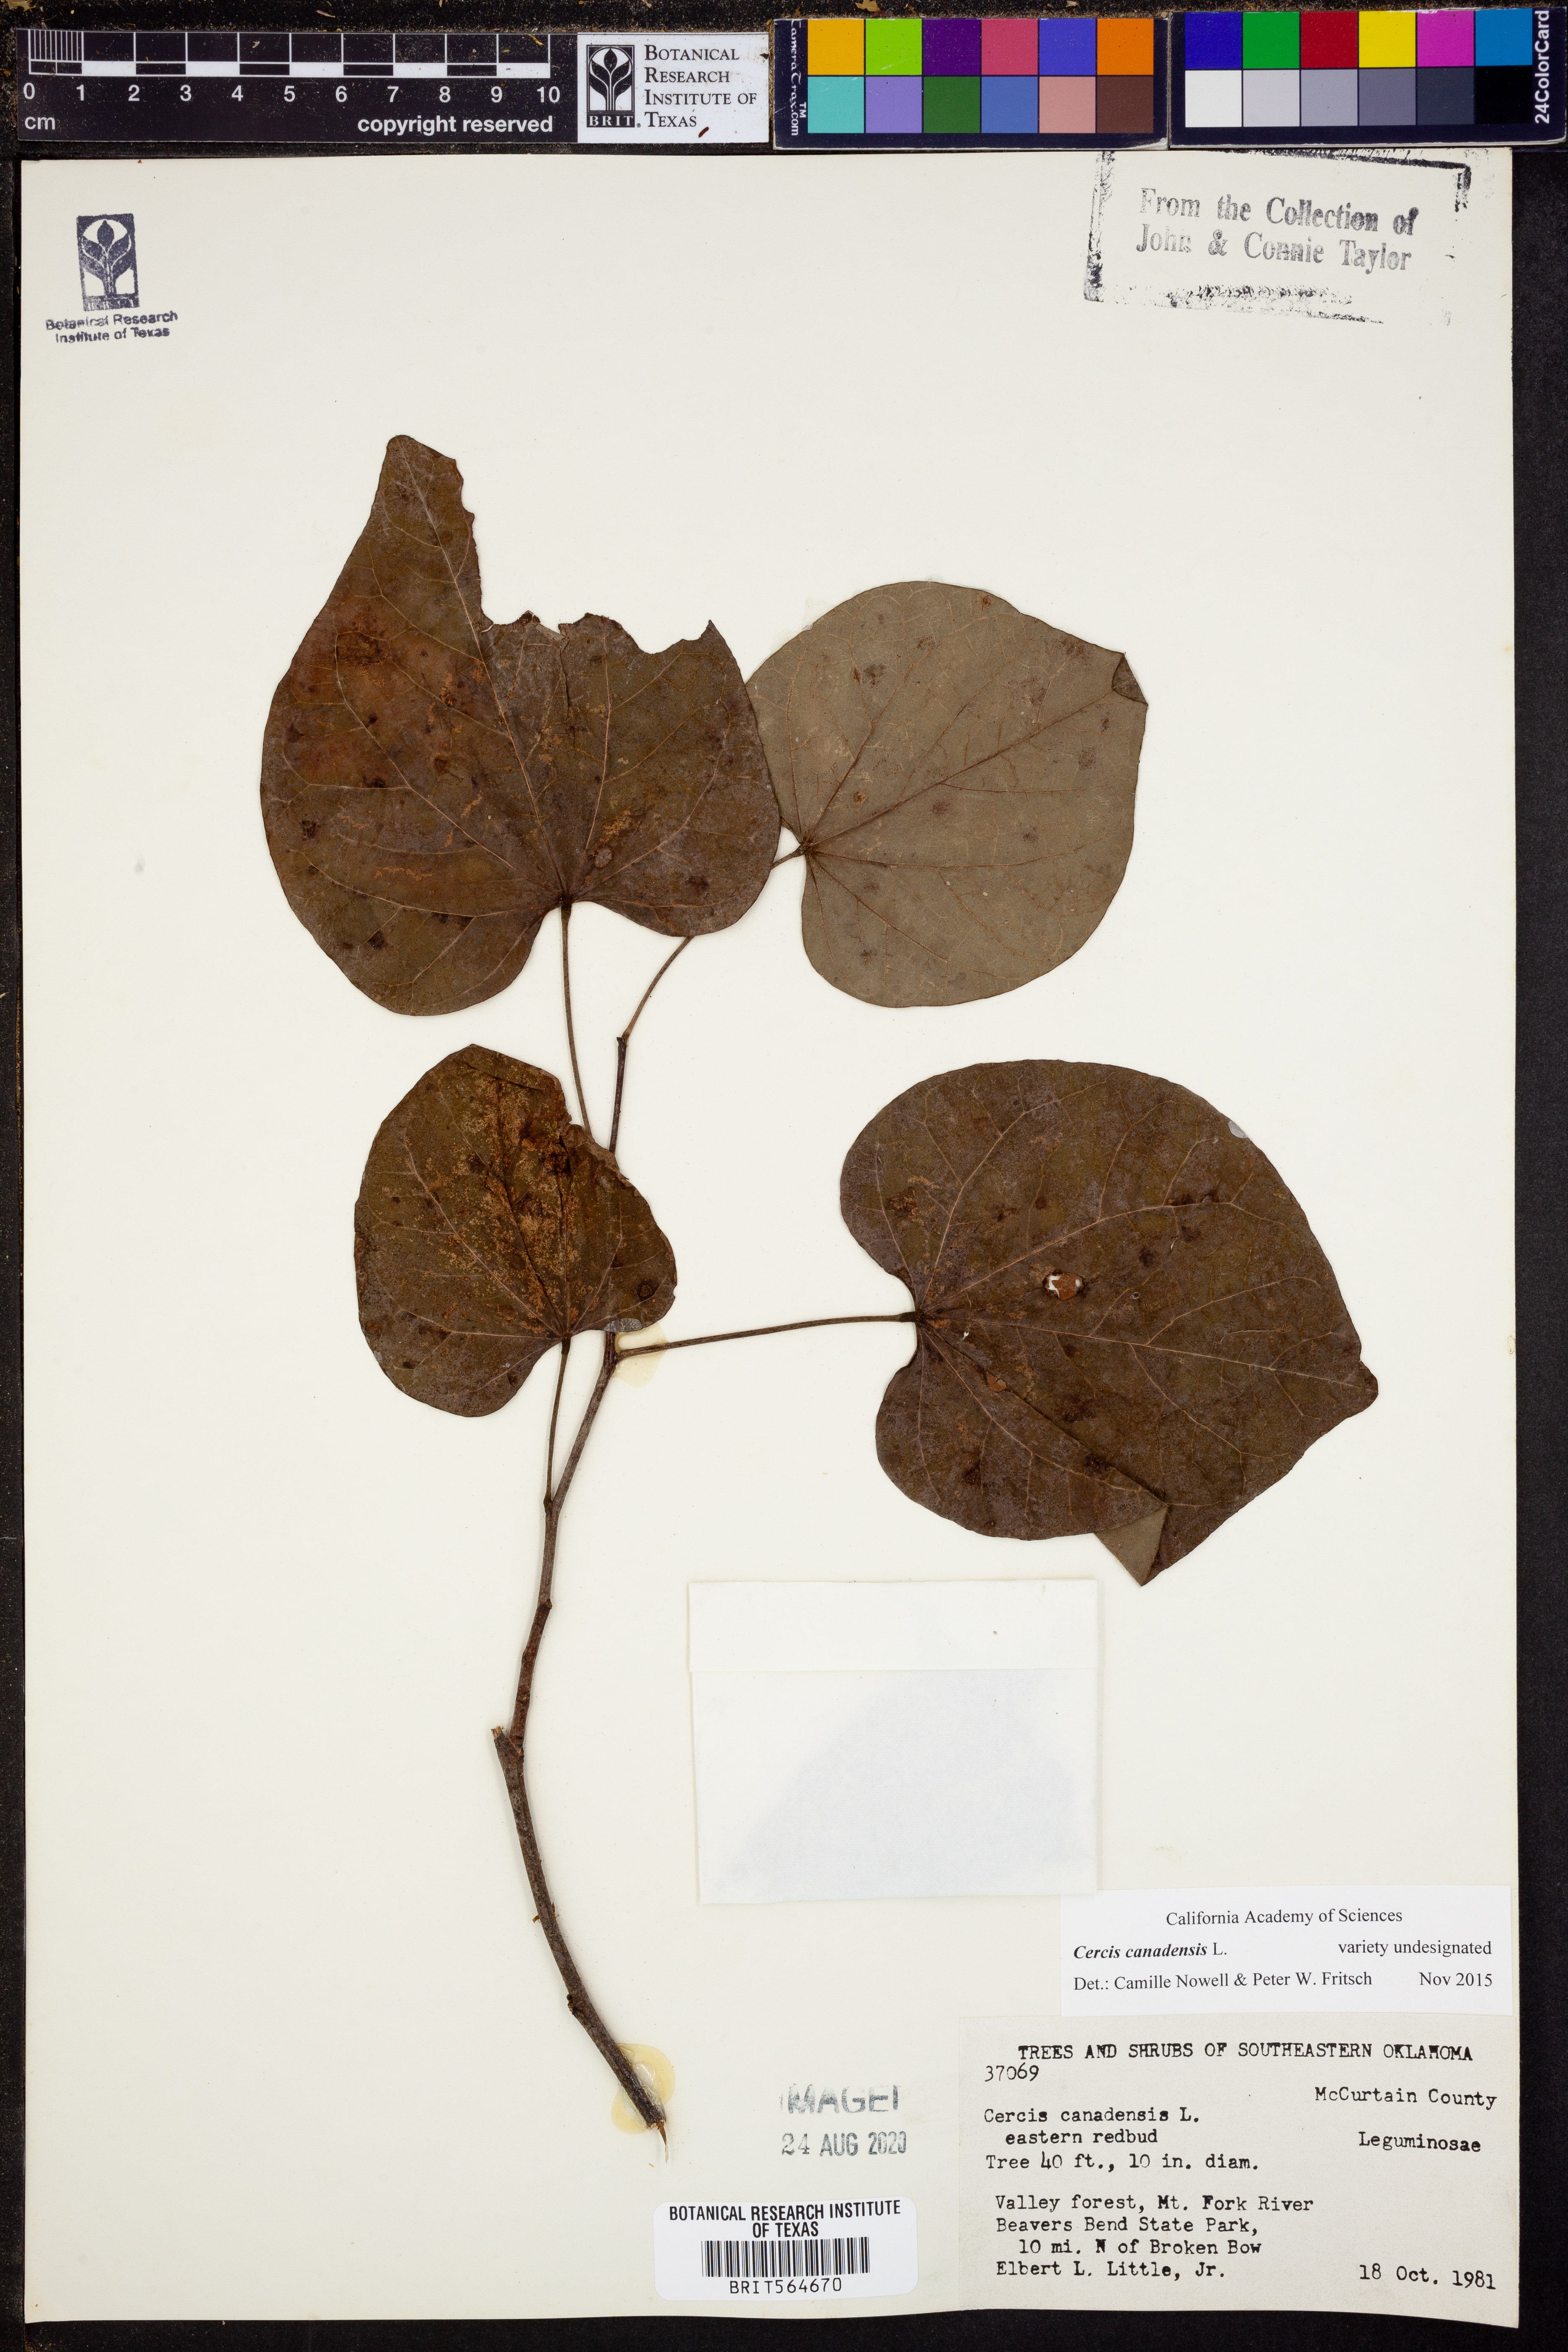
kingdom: Plantae
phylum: Tracheophyta
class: Magnoliopsida
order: Fabales
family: Fabaceae
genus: Cercis
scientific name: Cercis canadensis
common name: Eastern redbud
